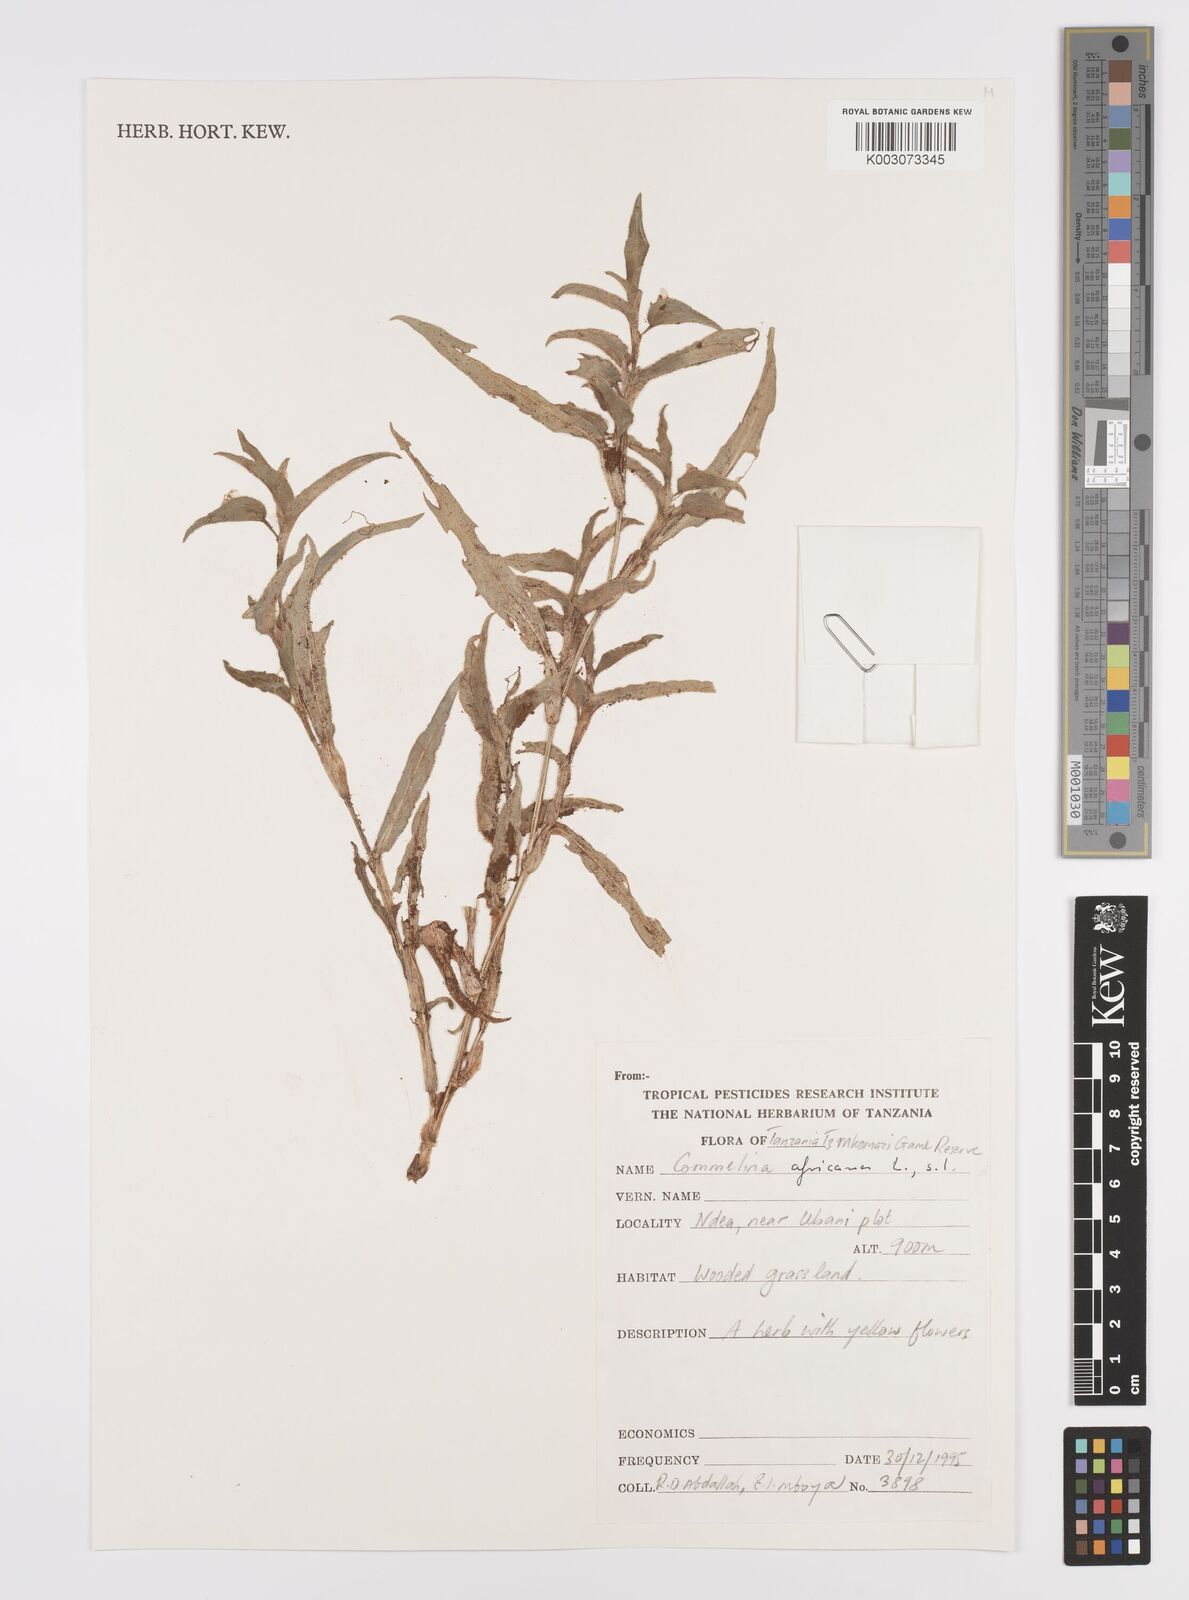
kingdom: Plantae
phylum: Tracheophyta
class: Liliopsida
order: Commelinales
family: Commelinaceae
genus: Commelina
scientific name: Commelina africana
